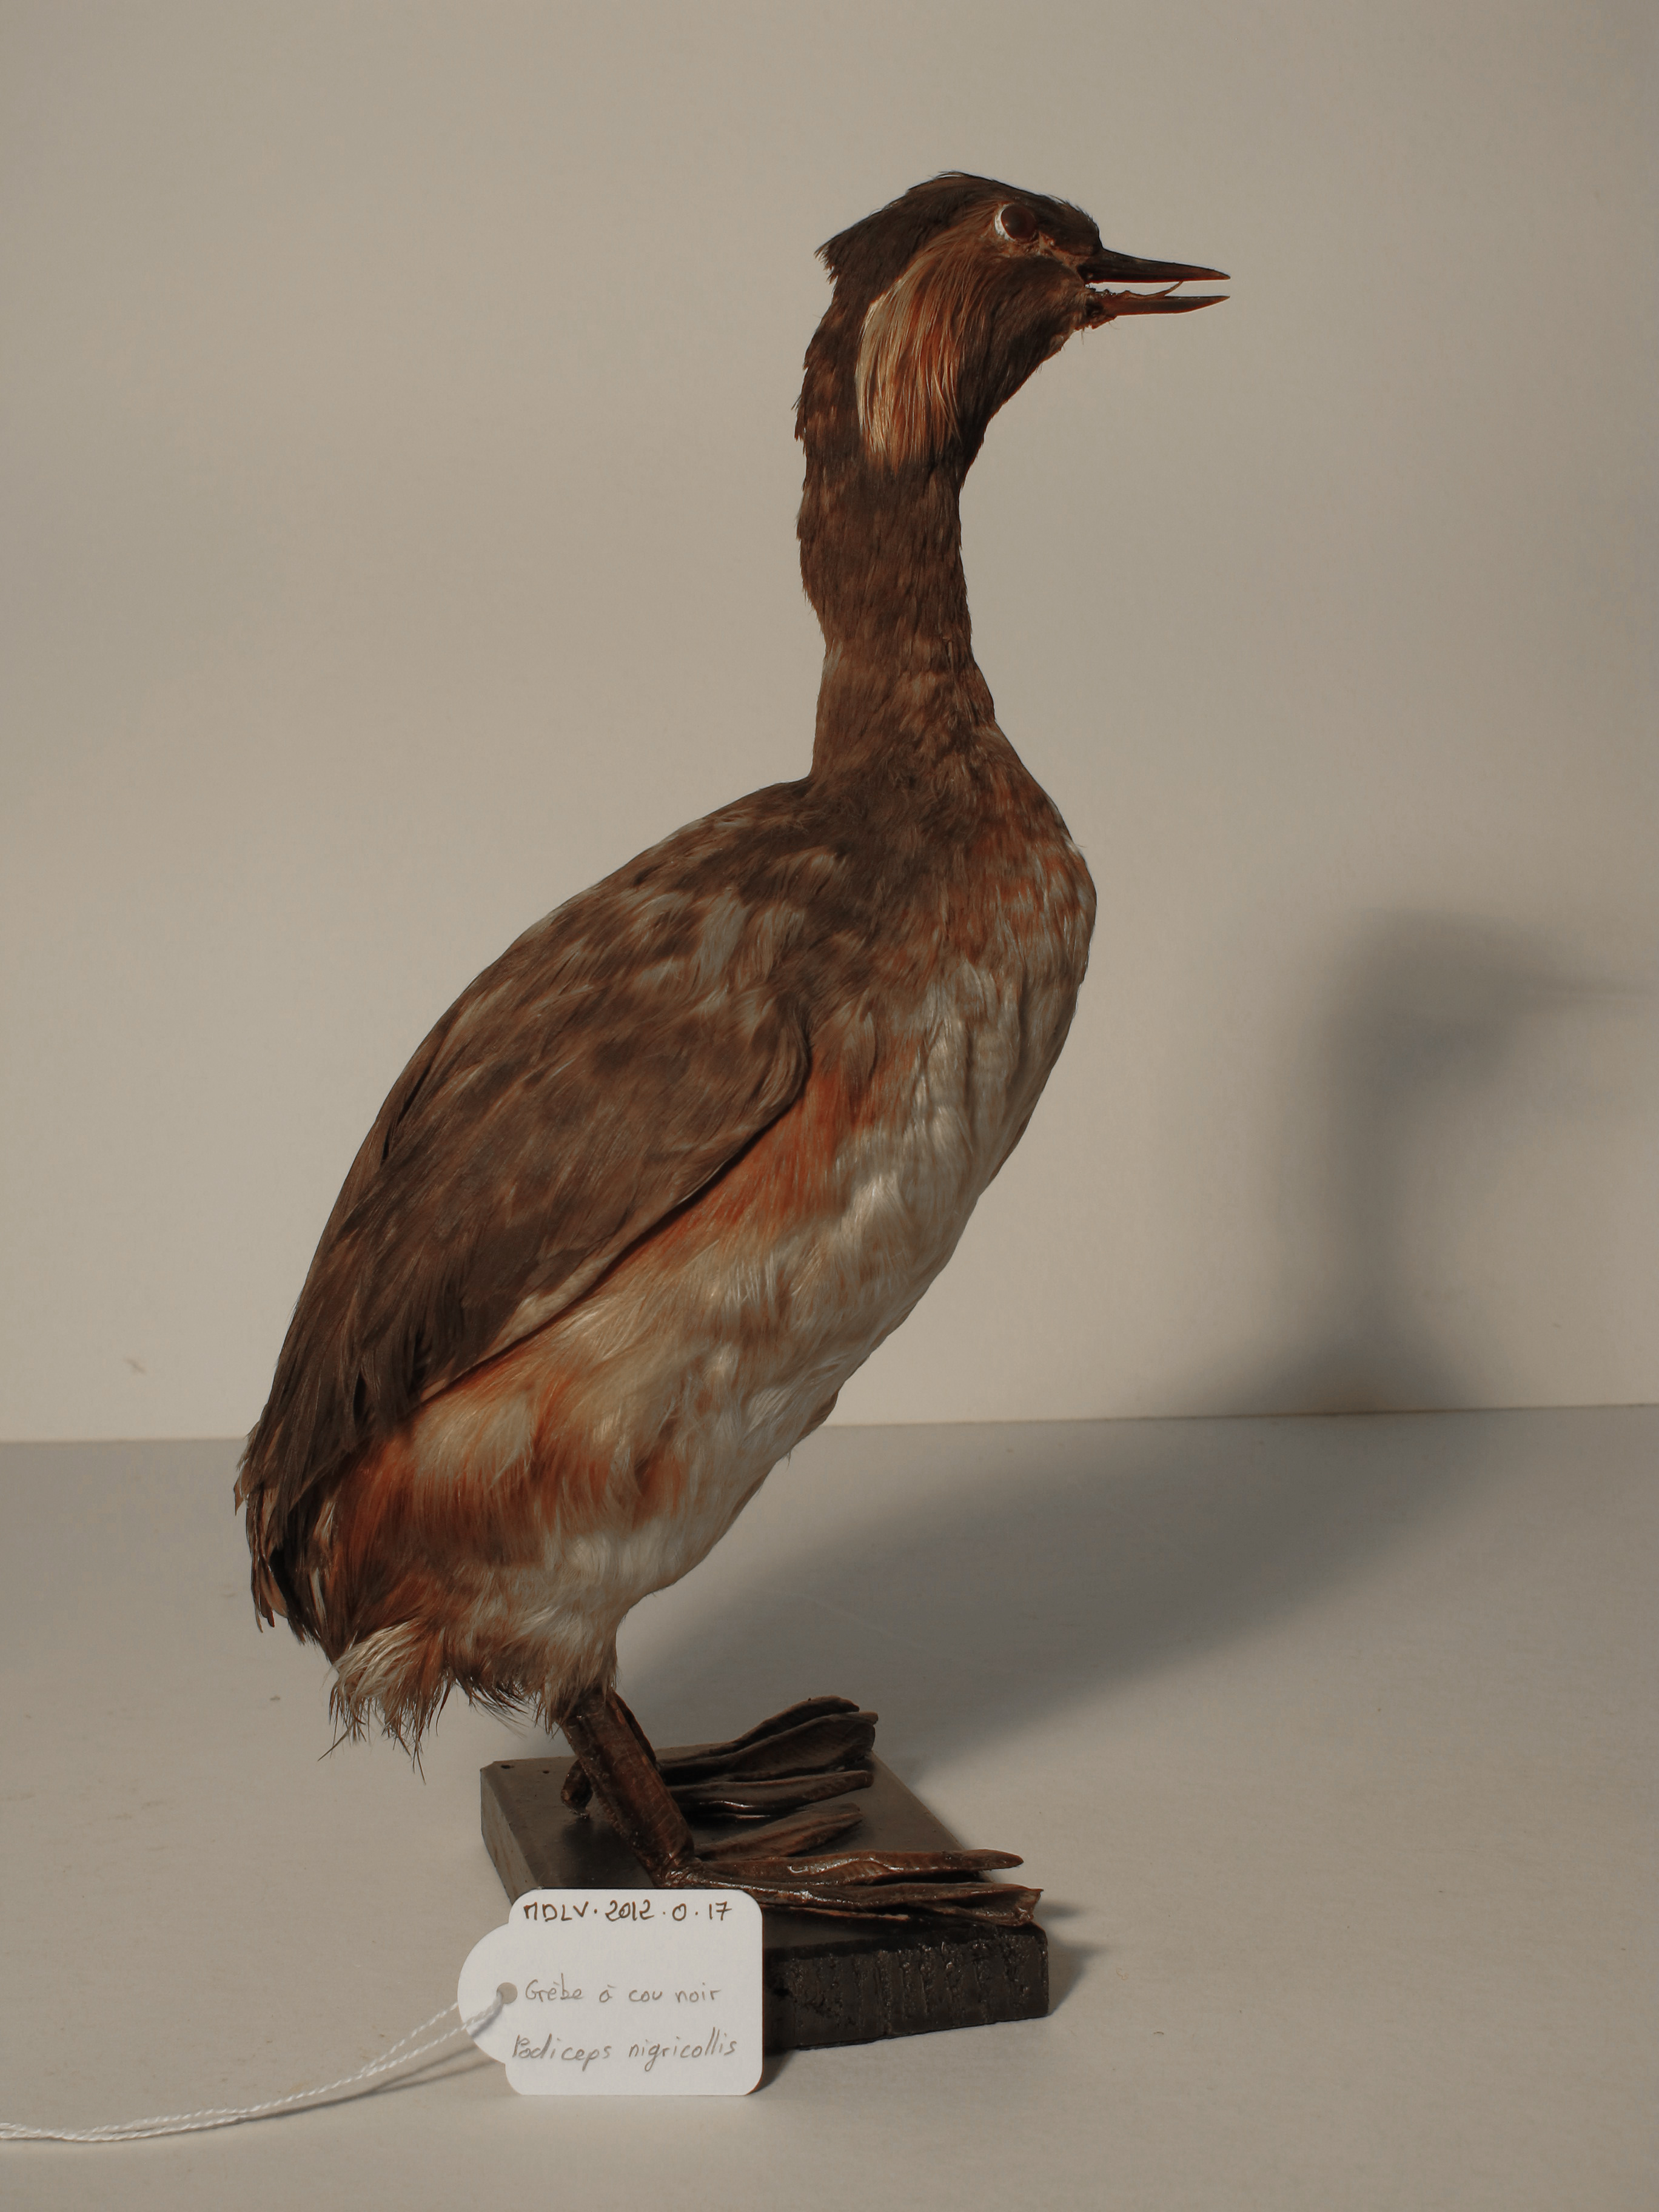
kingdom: Animalia
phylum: Chordata
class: Aves
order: Podicipediformes
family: Podicipedidae
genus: Podiceps
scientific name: Podiceps nigricollis
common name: Black-necked Grebe
